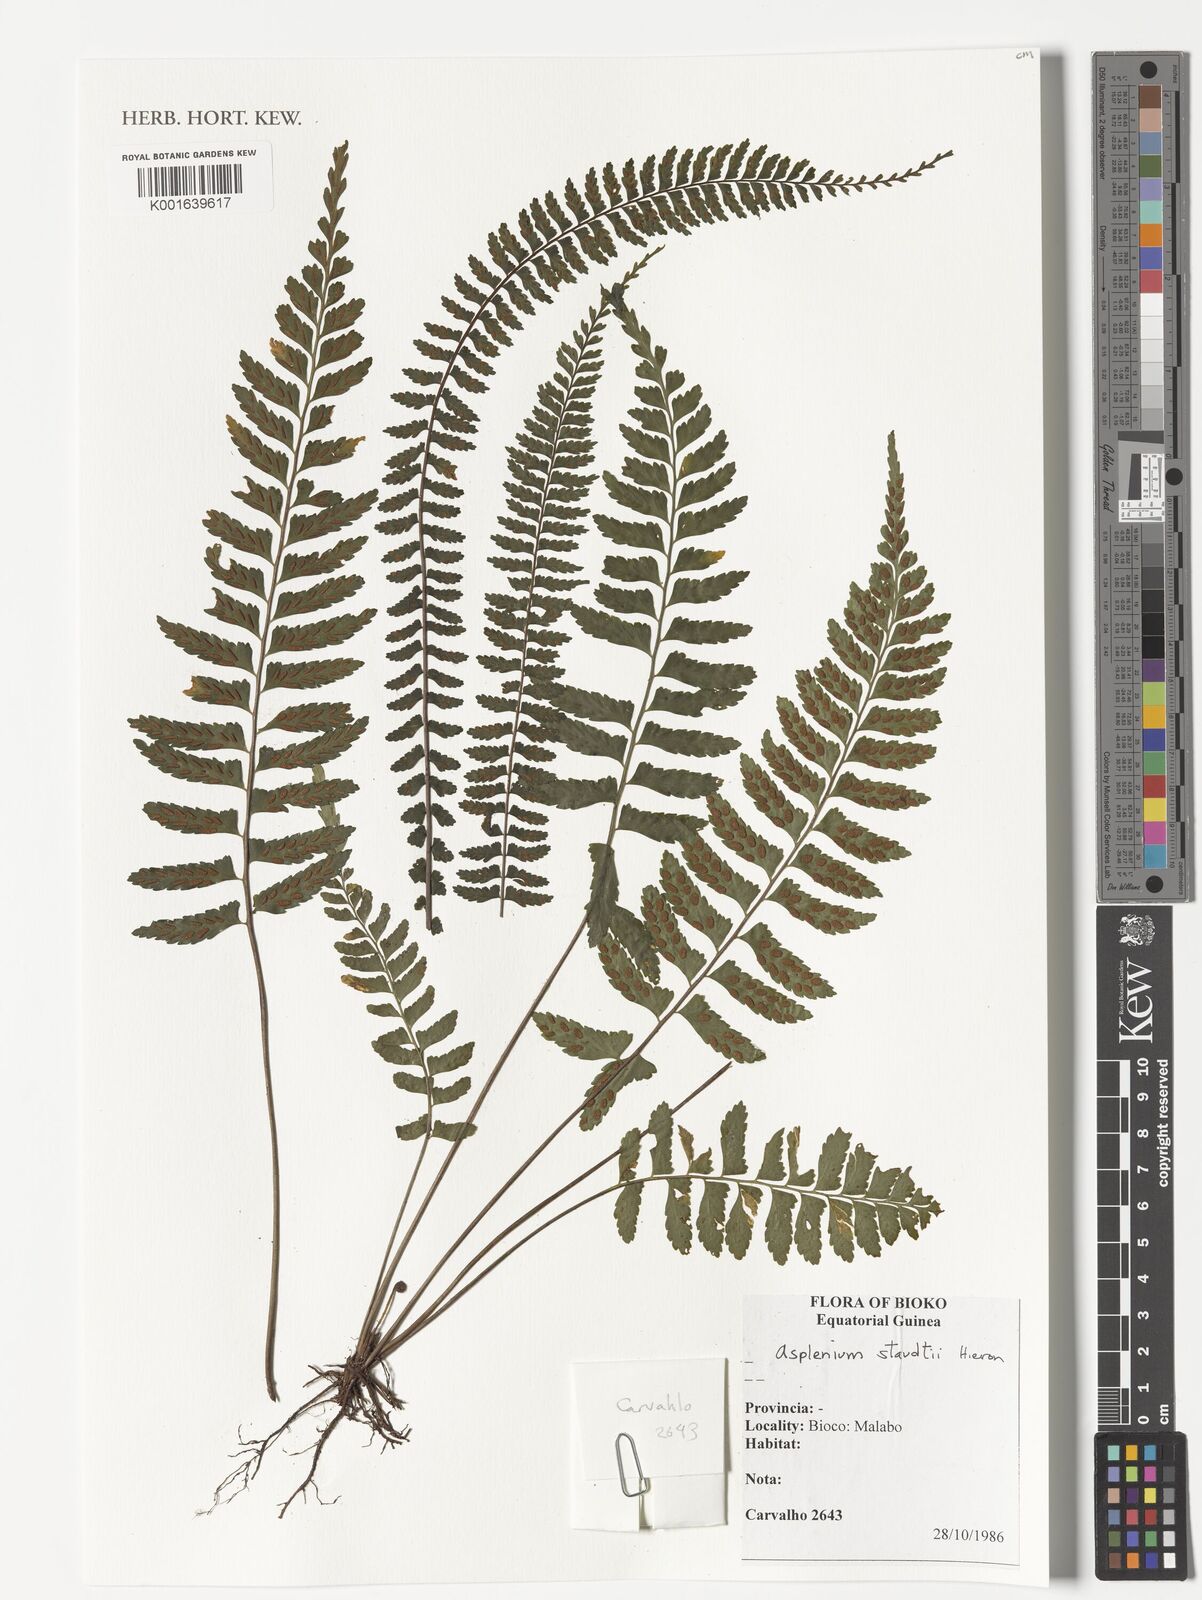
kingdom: Plantae
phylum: Tracheophyta
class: Polypodiopsida
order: Polypodiales
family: Aspleniaceae
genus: Asplenium
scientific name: Asplenium staudtii
